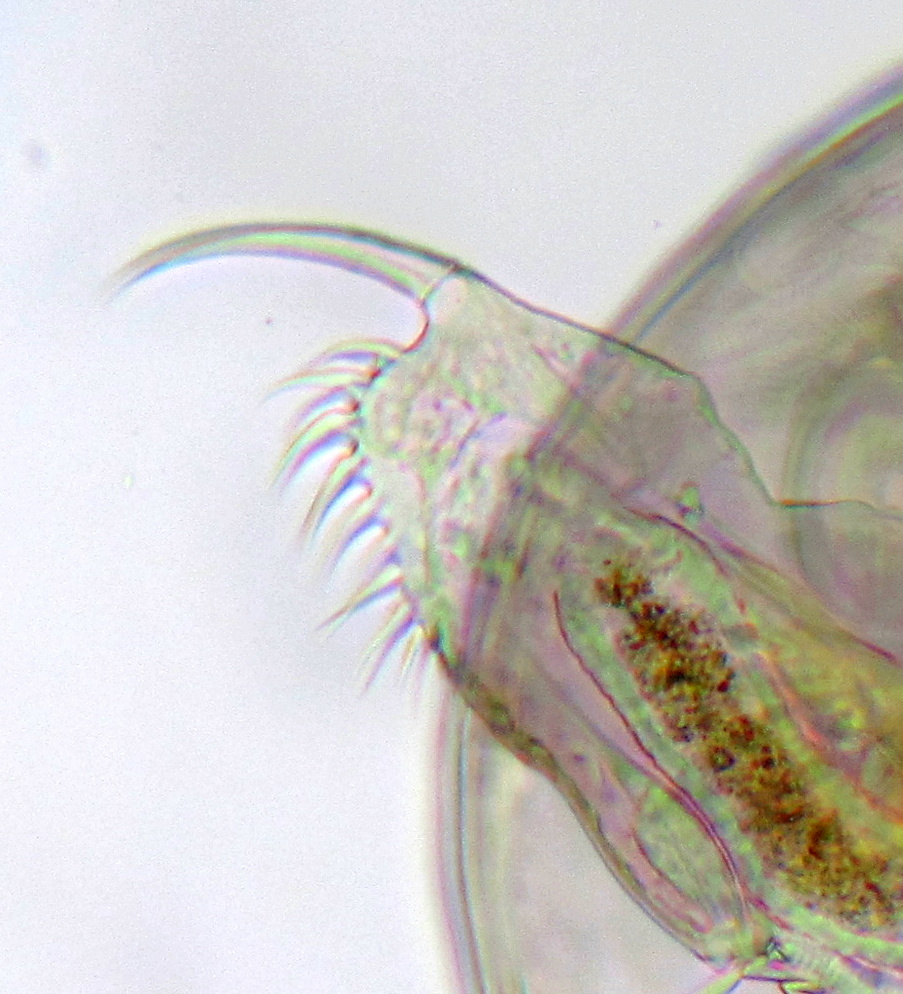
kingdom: Animalia
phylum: Arthropoda
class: Branchiopoda
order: Diplostraca
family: Daphniidae
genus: Ceriodaphnia
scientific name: Ceriodaphnia quadrangula
